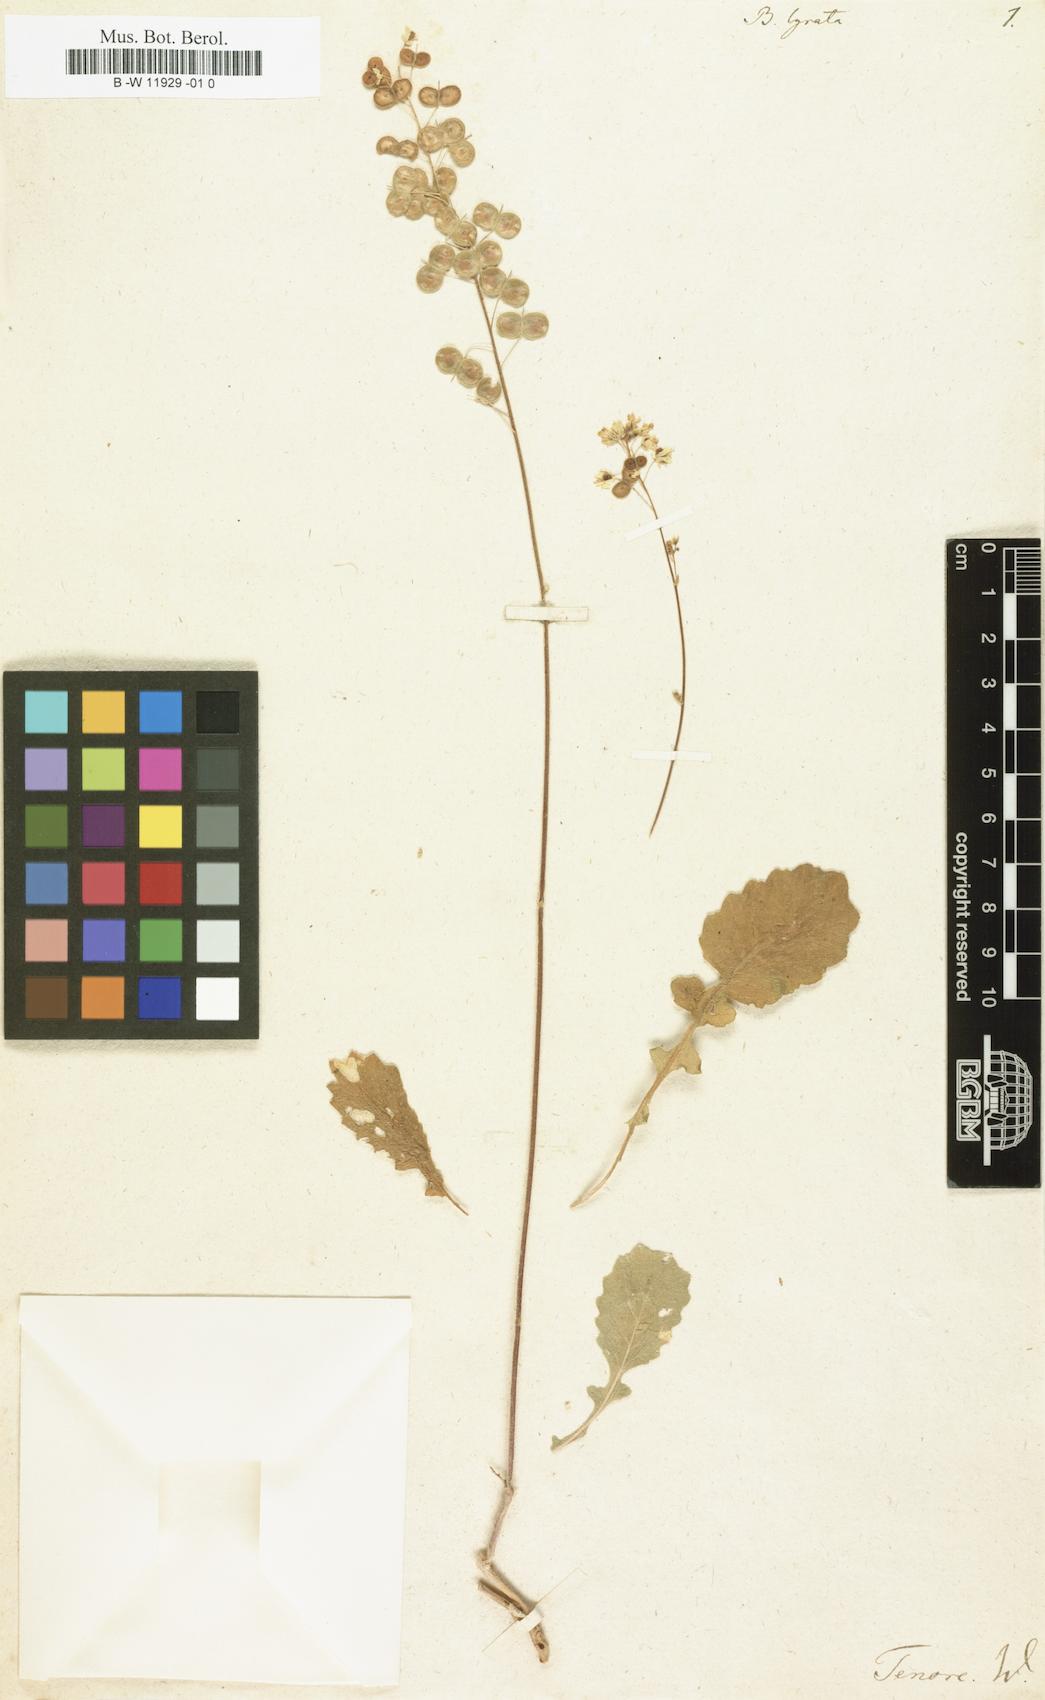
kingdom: Plantae
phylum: Tracheophyta
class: Magnoliopsida
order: Brassicales
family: Brassicaceae
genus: Biscutella
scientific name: Biscutella lyrata
